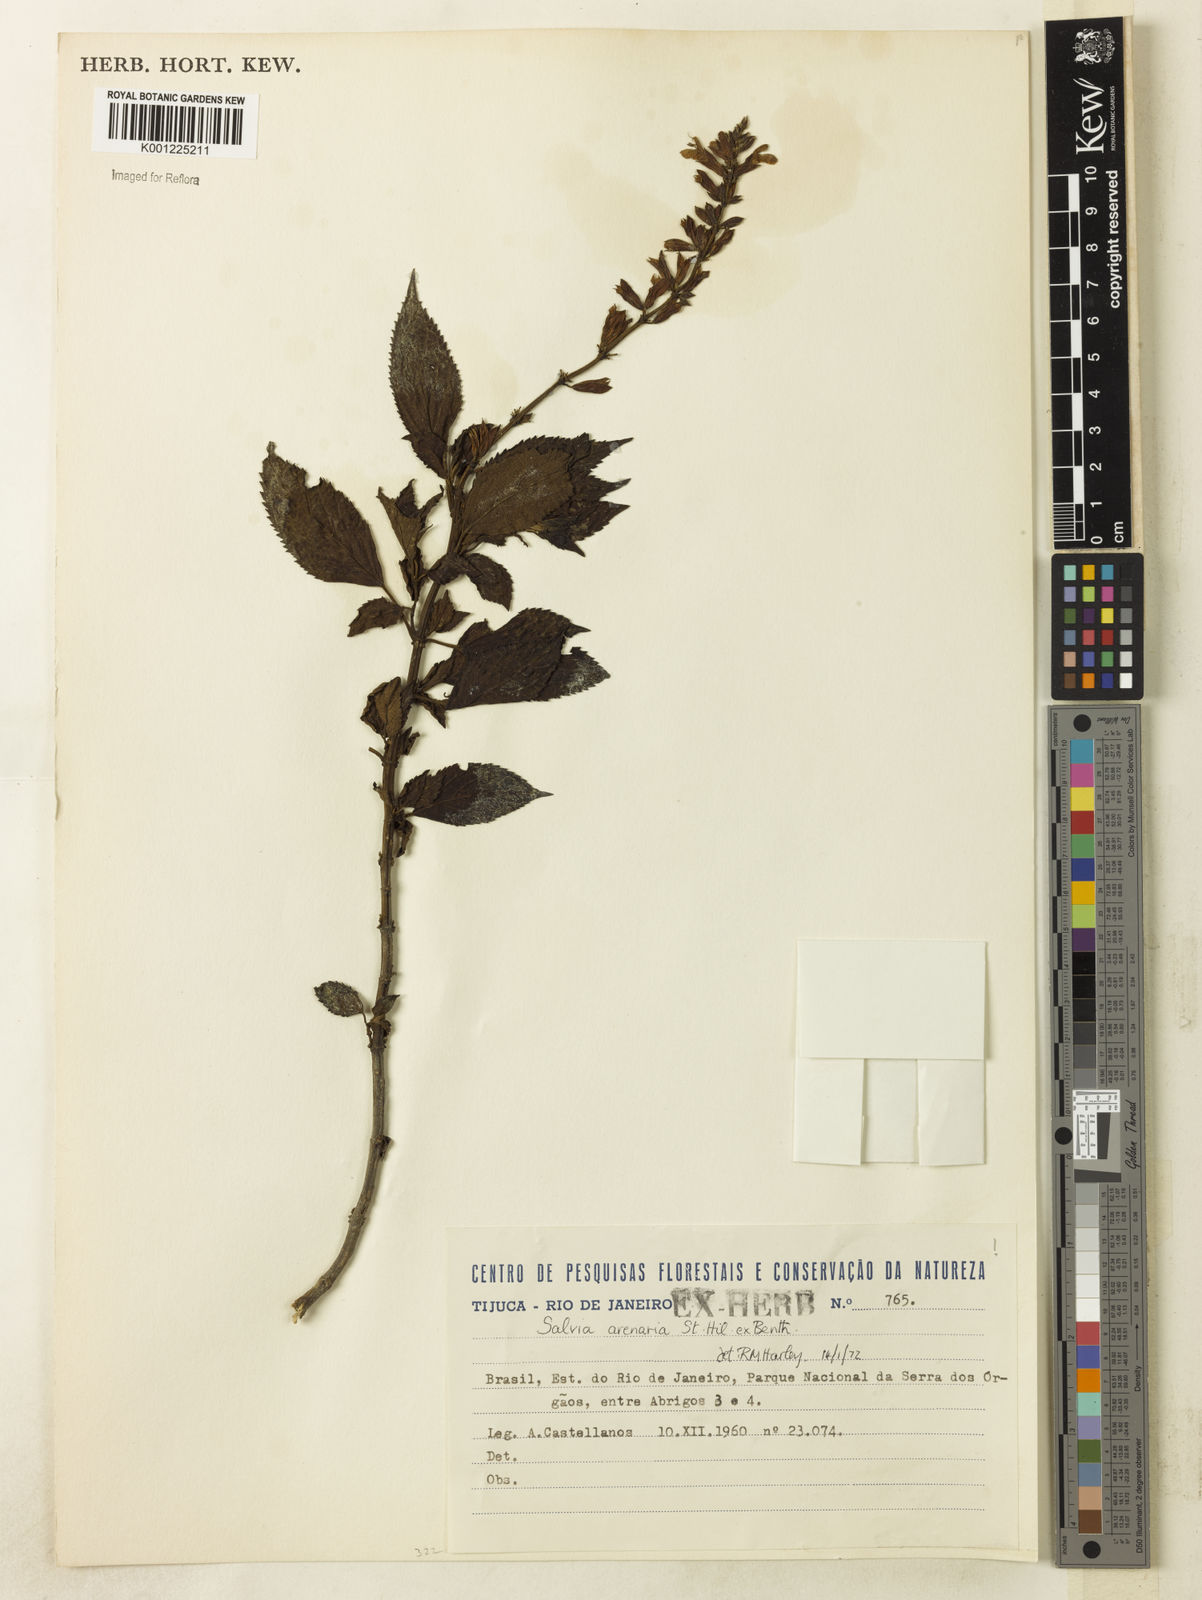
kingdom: Plantae
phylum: Tracheophyta
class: Magnoliopsida
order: Lamiales
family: Lamiaceae
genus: Salvia
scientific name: Salvia arenaria
